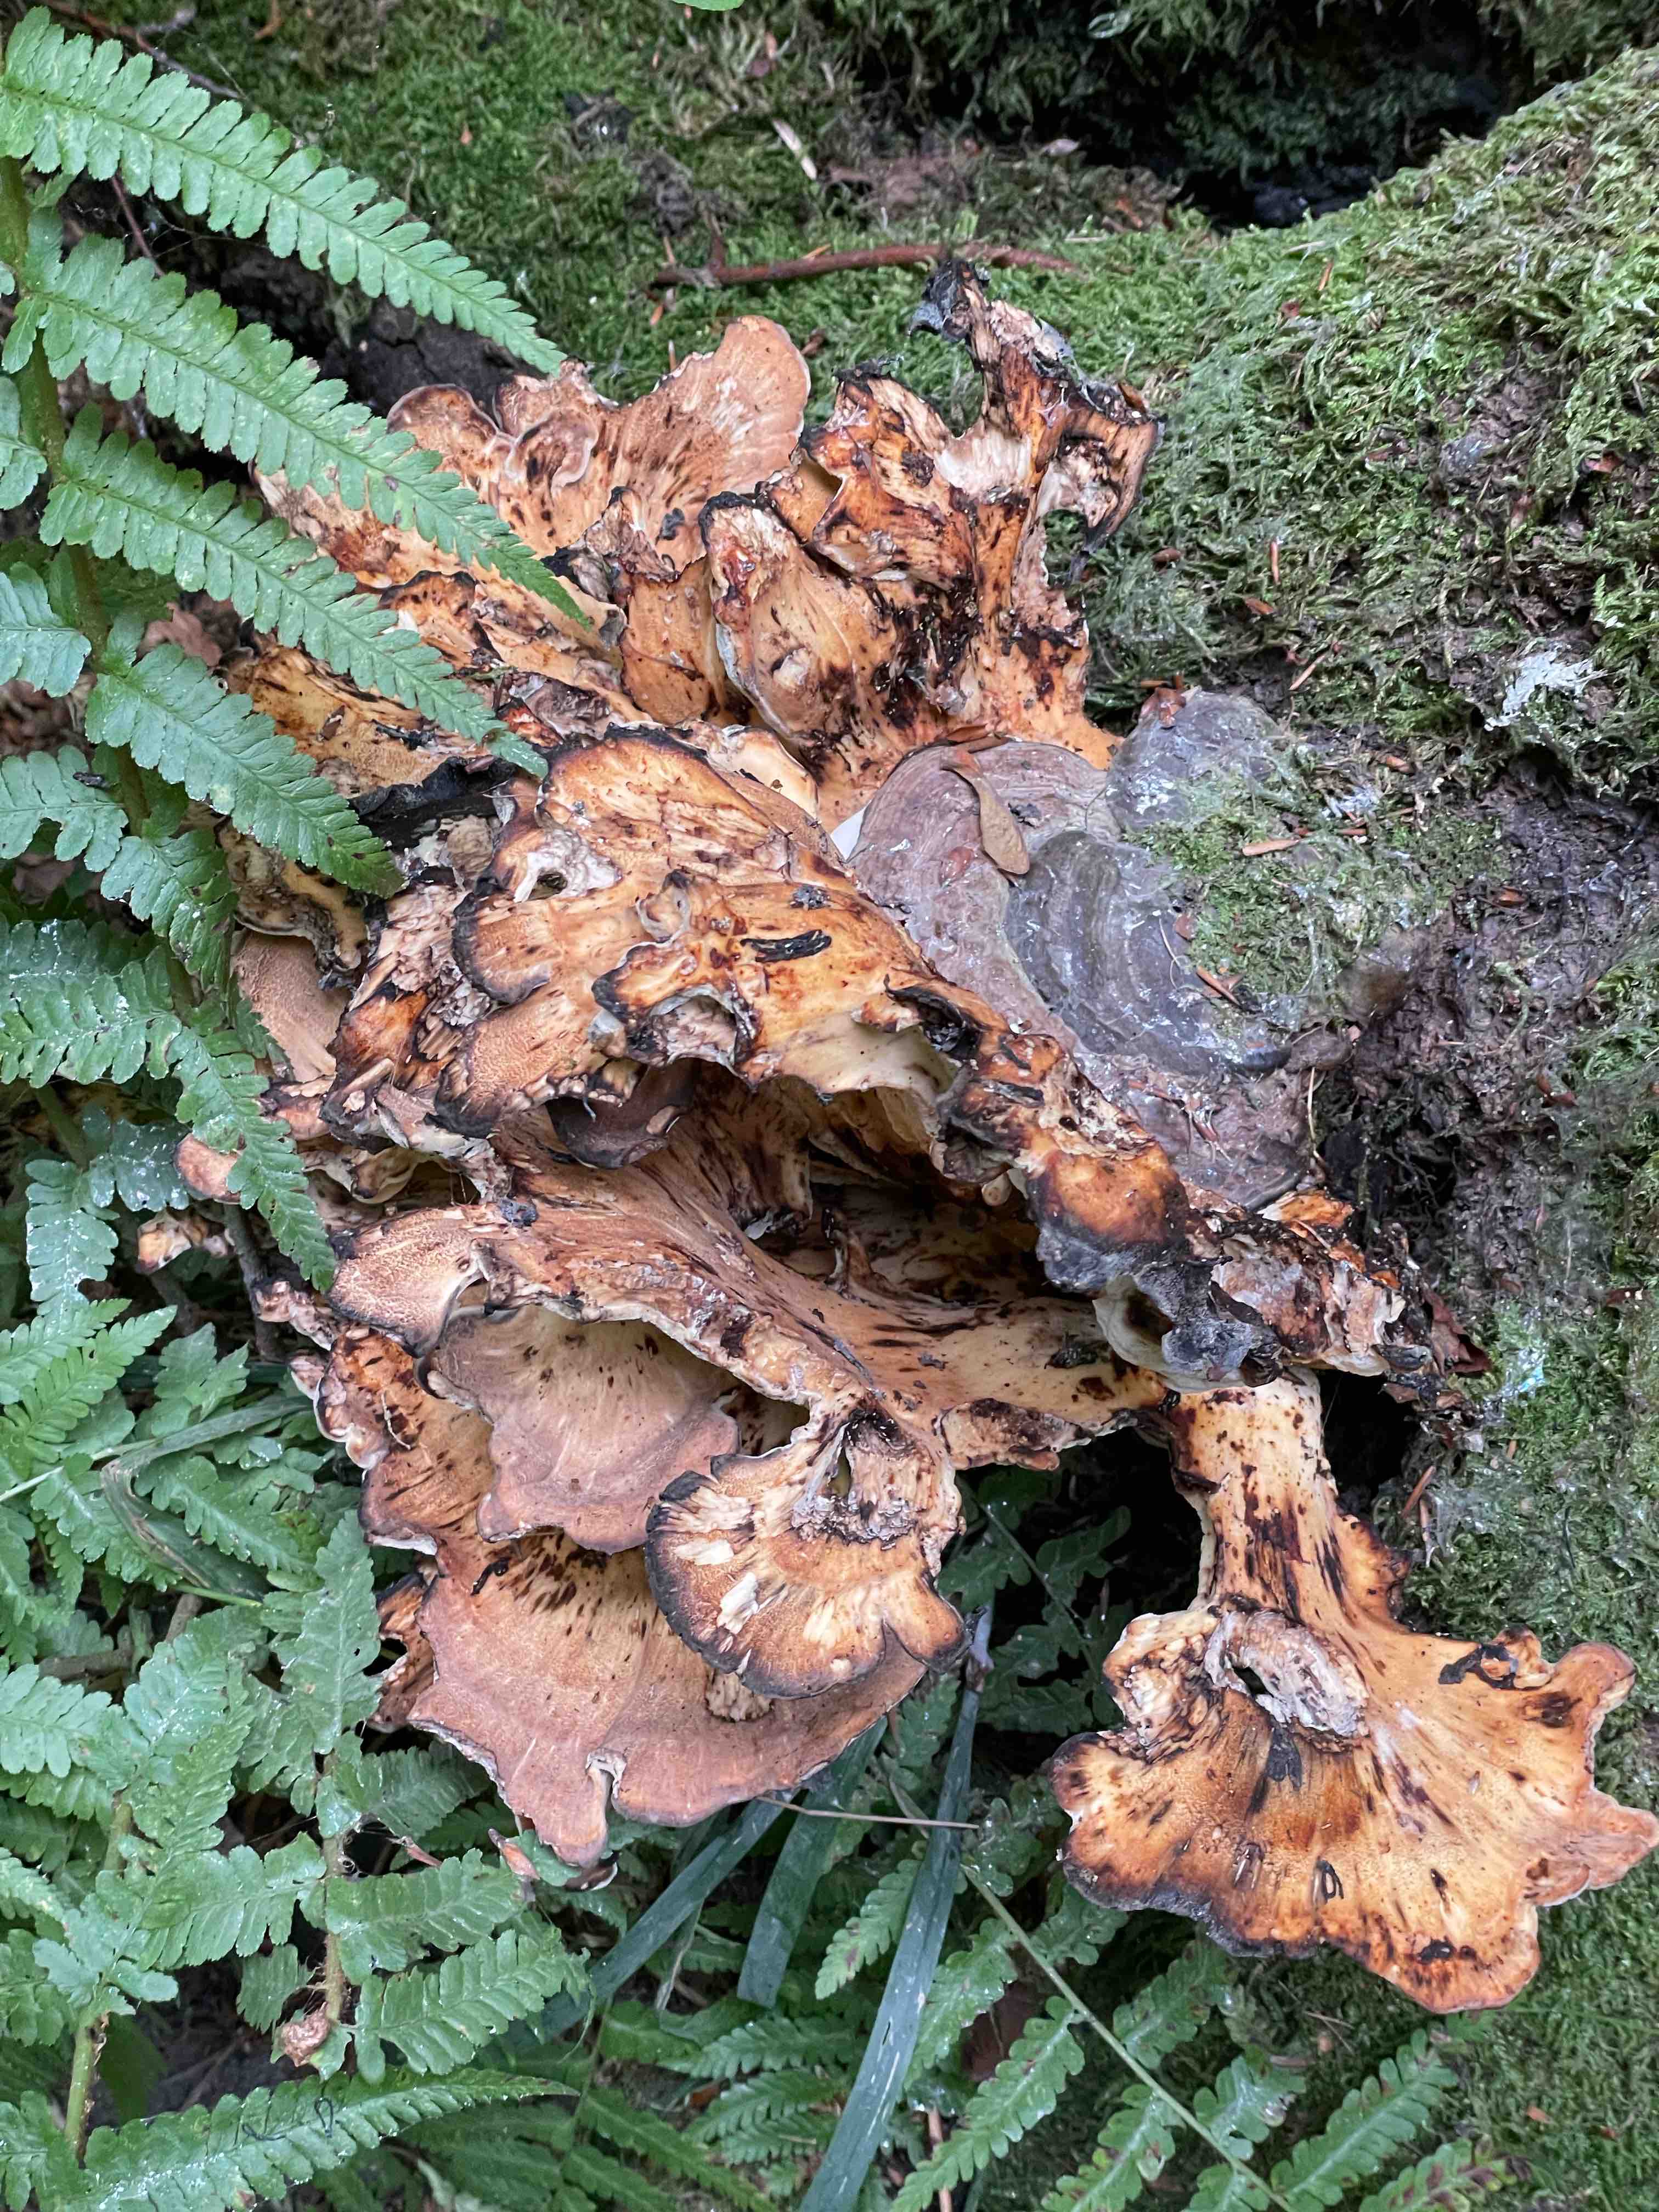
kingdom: Fungi
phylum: Basidiomycota
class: Agaricomycetes
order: Polyporales
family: Meripilaceae
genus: Meripilus
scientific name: Meripilus giganteus
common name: kæmpeporesvamp
